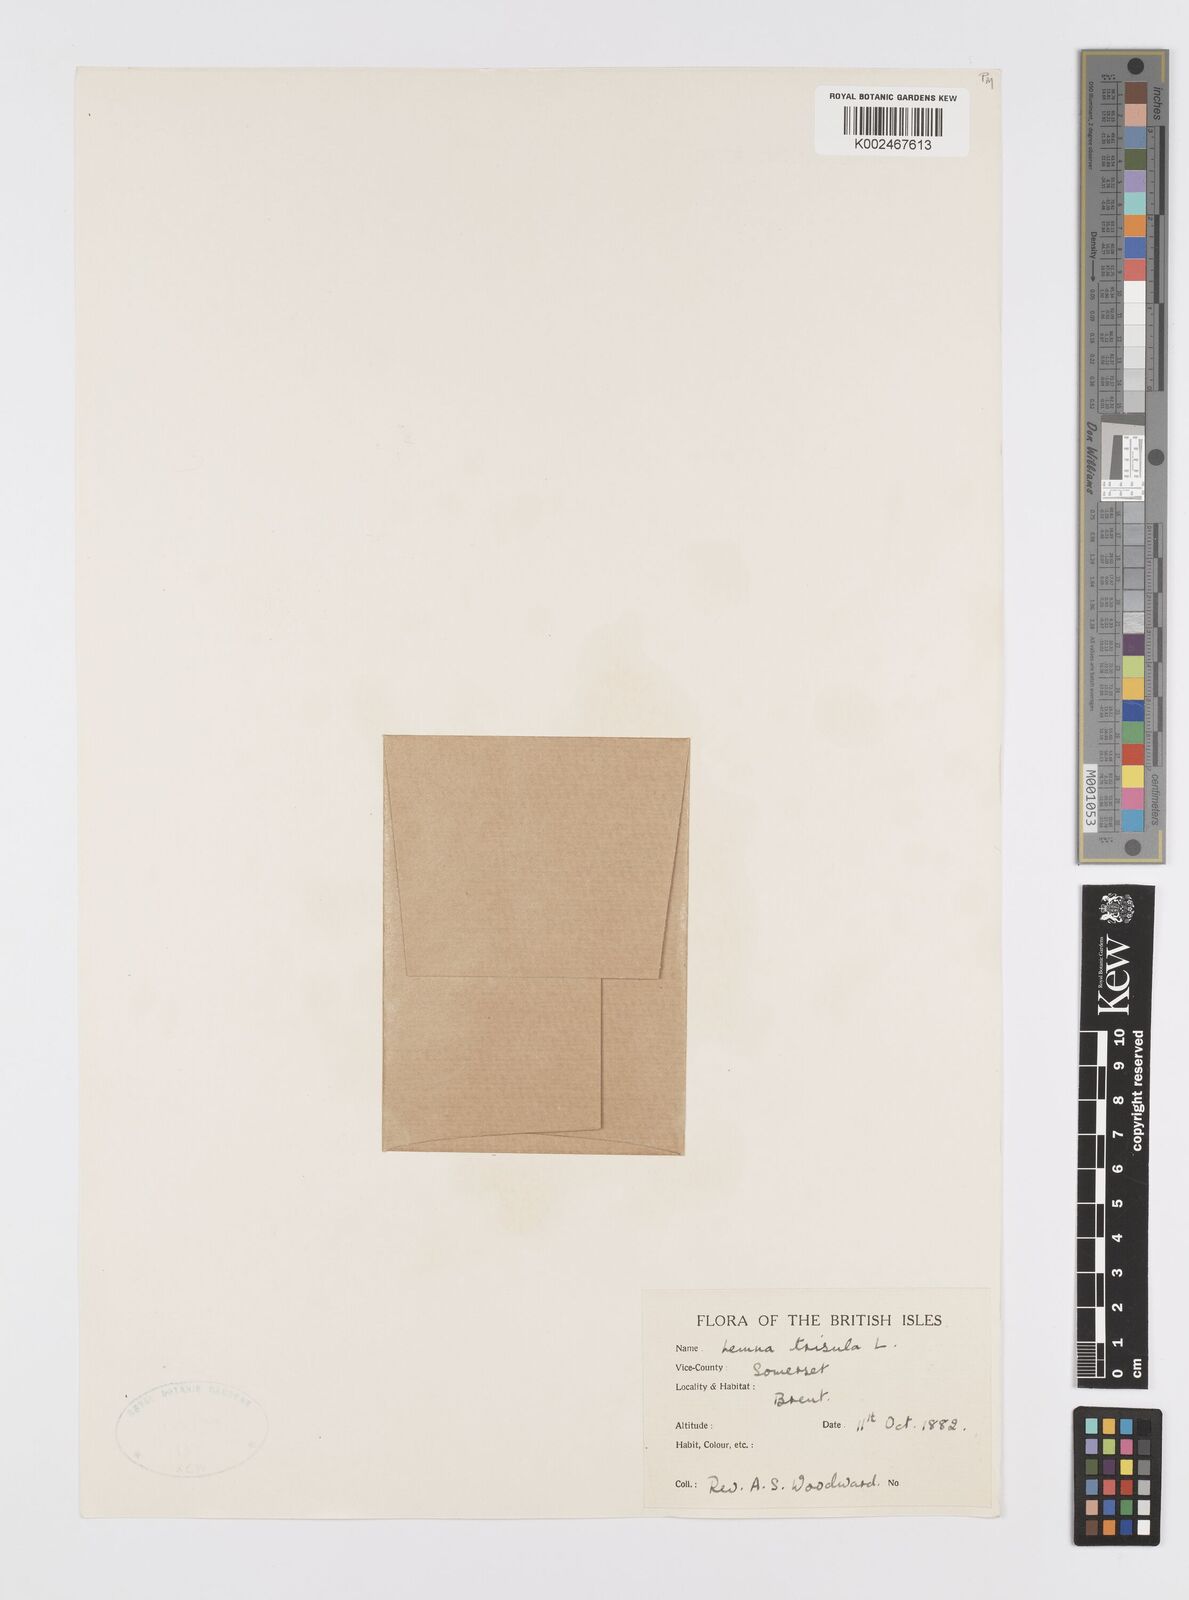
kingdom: Plantae
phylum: Tracheophyta
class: Liliopsida
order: Alismatales
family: Araceae
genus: Lemna
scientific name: Lemna trisulca
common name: Ivy-leaved duckweed
